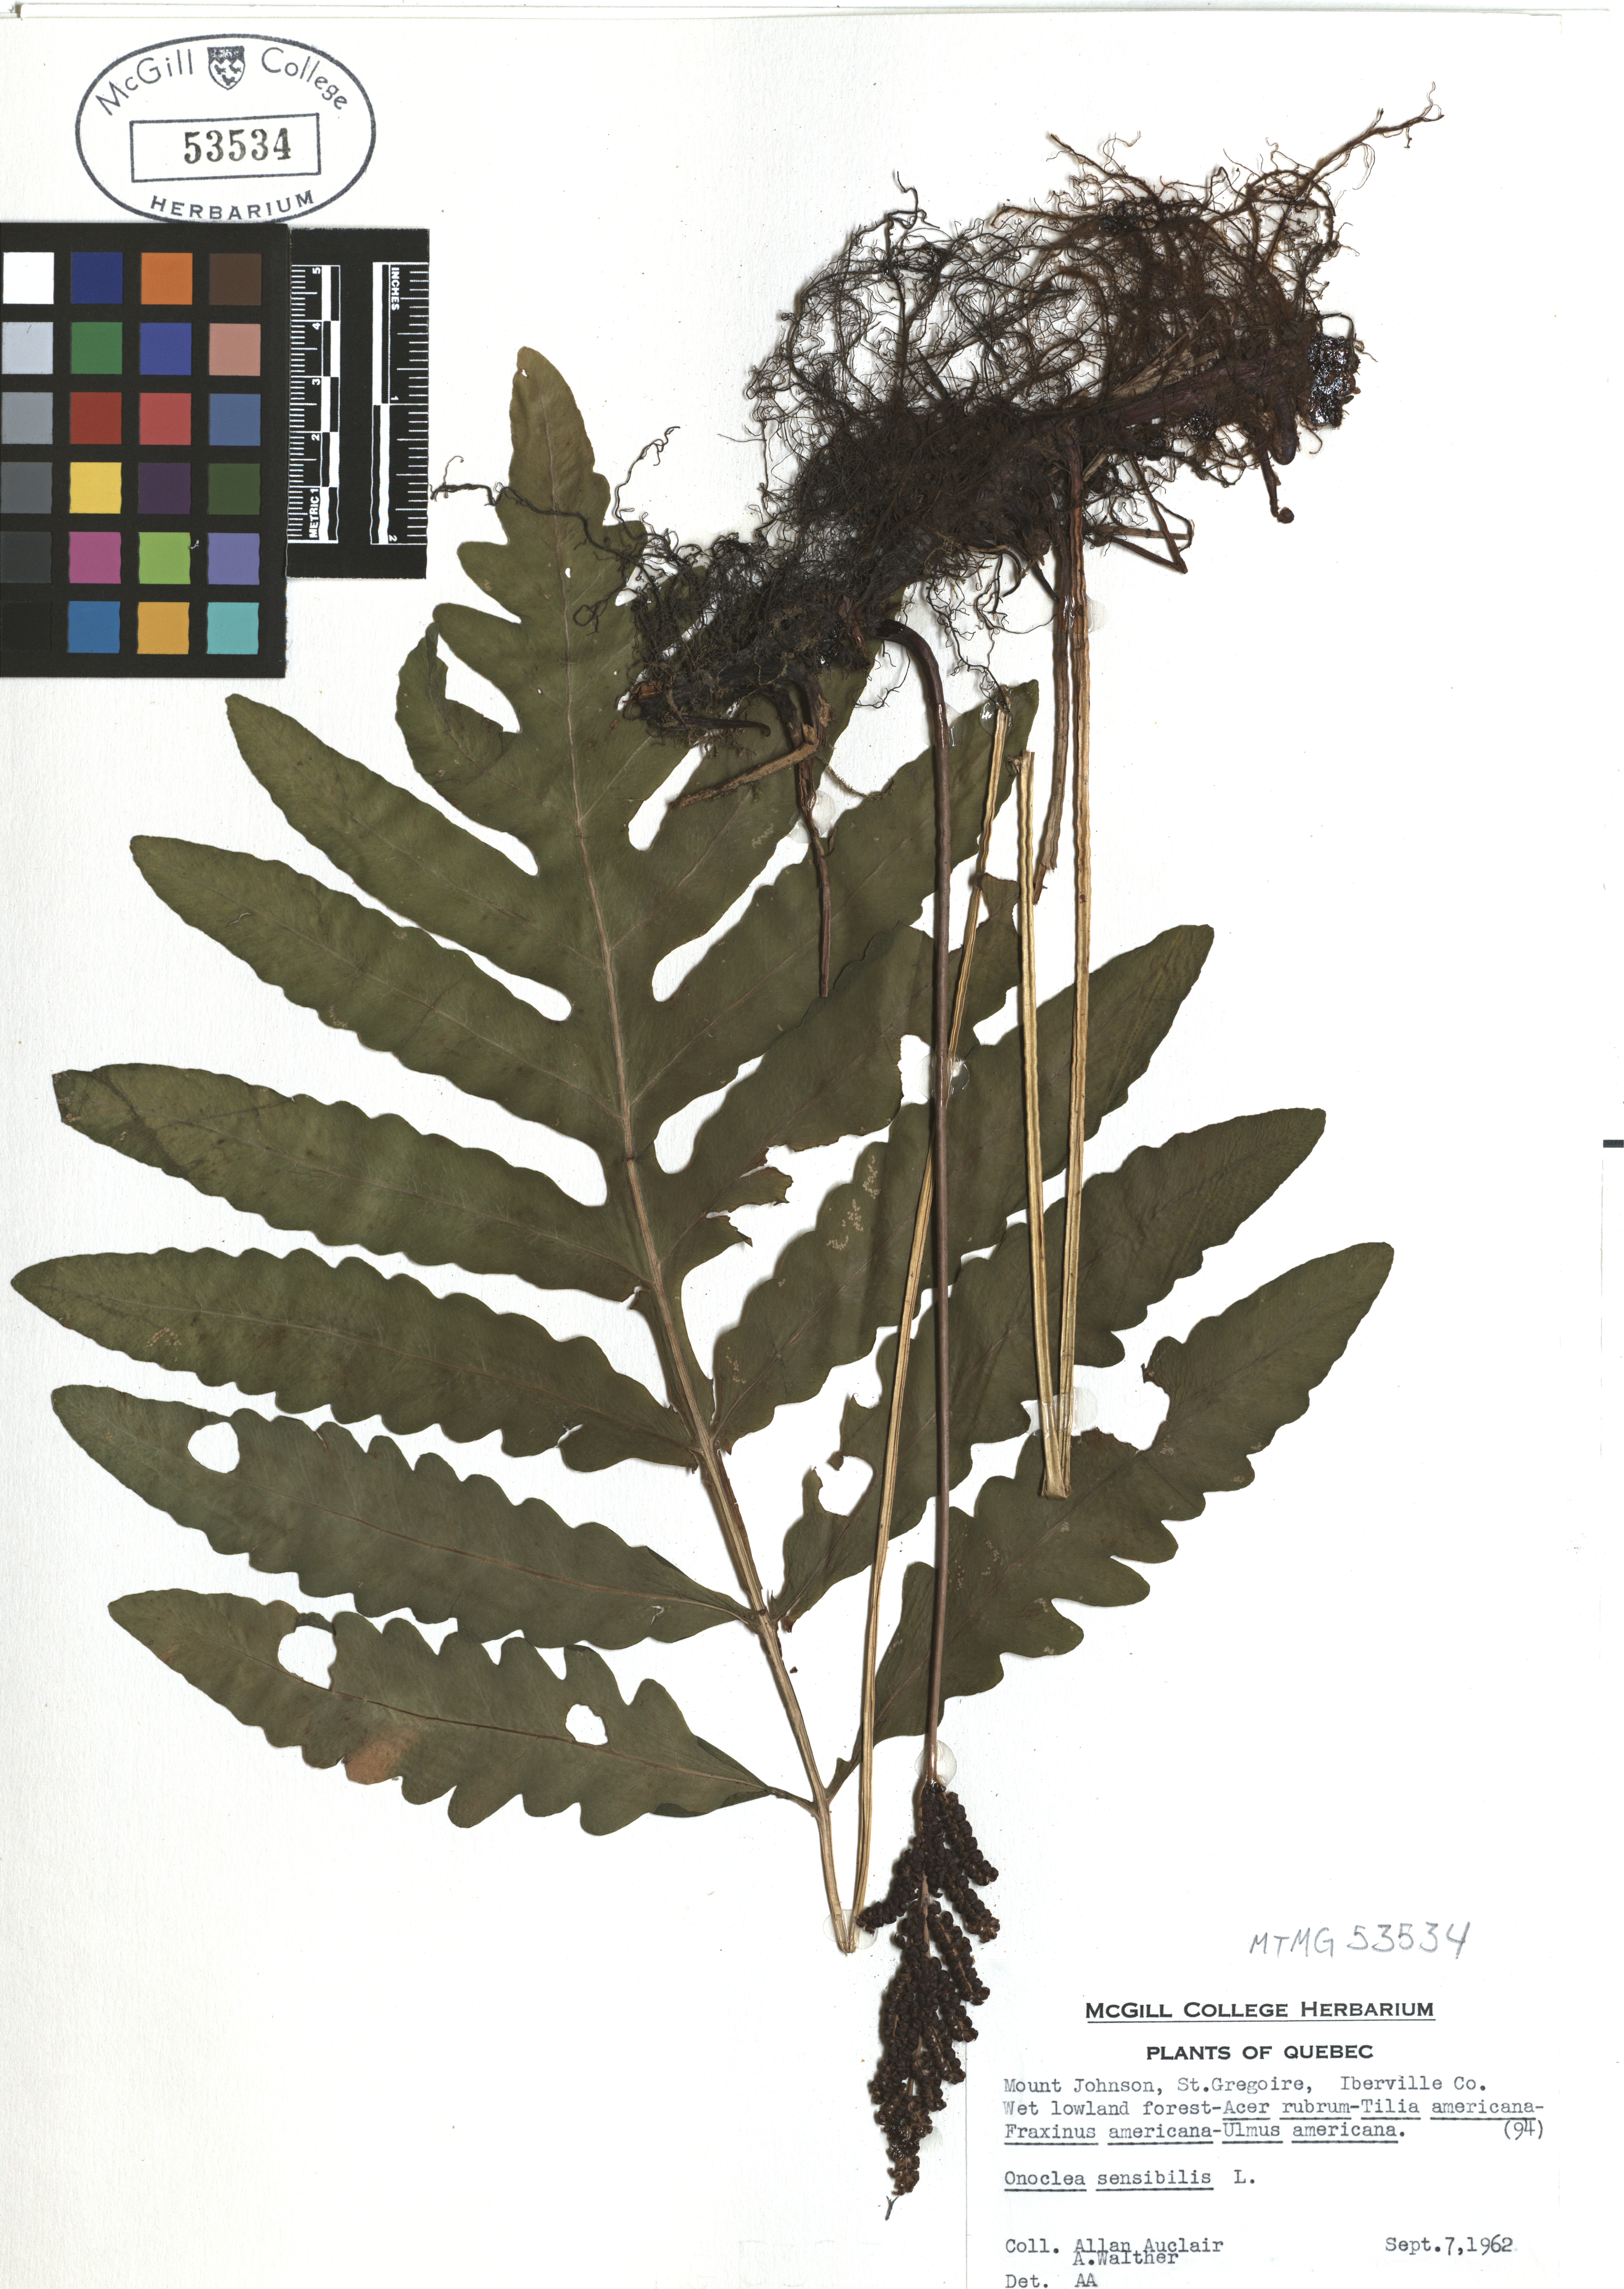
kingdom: Plantae
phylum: Tracheophyta
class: Polypodiopsida
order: Polypodiales
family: Onocleaceae
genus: Onoclea
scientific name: Onoclea sensibilis
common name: Sensitive fern
